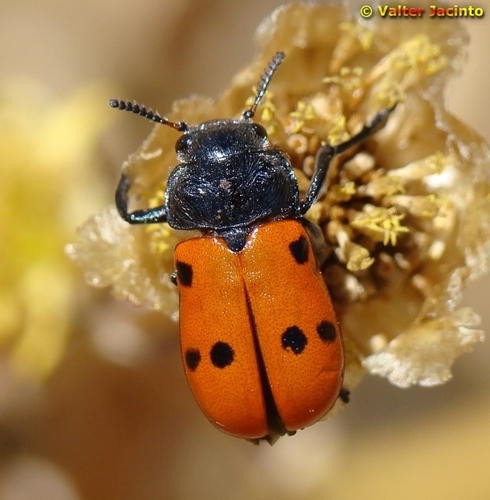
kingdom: Animalia
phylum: Arthropoda
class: Insecta
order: Coleoptera
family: Chrysomelidae
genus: Lachnaia
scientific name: Lachnaia paradoxa
